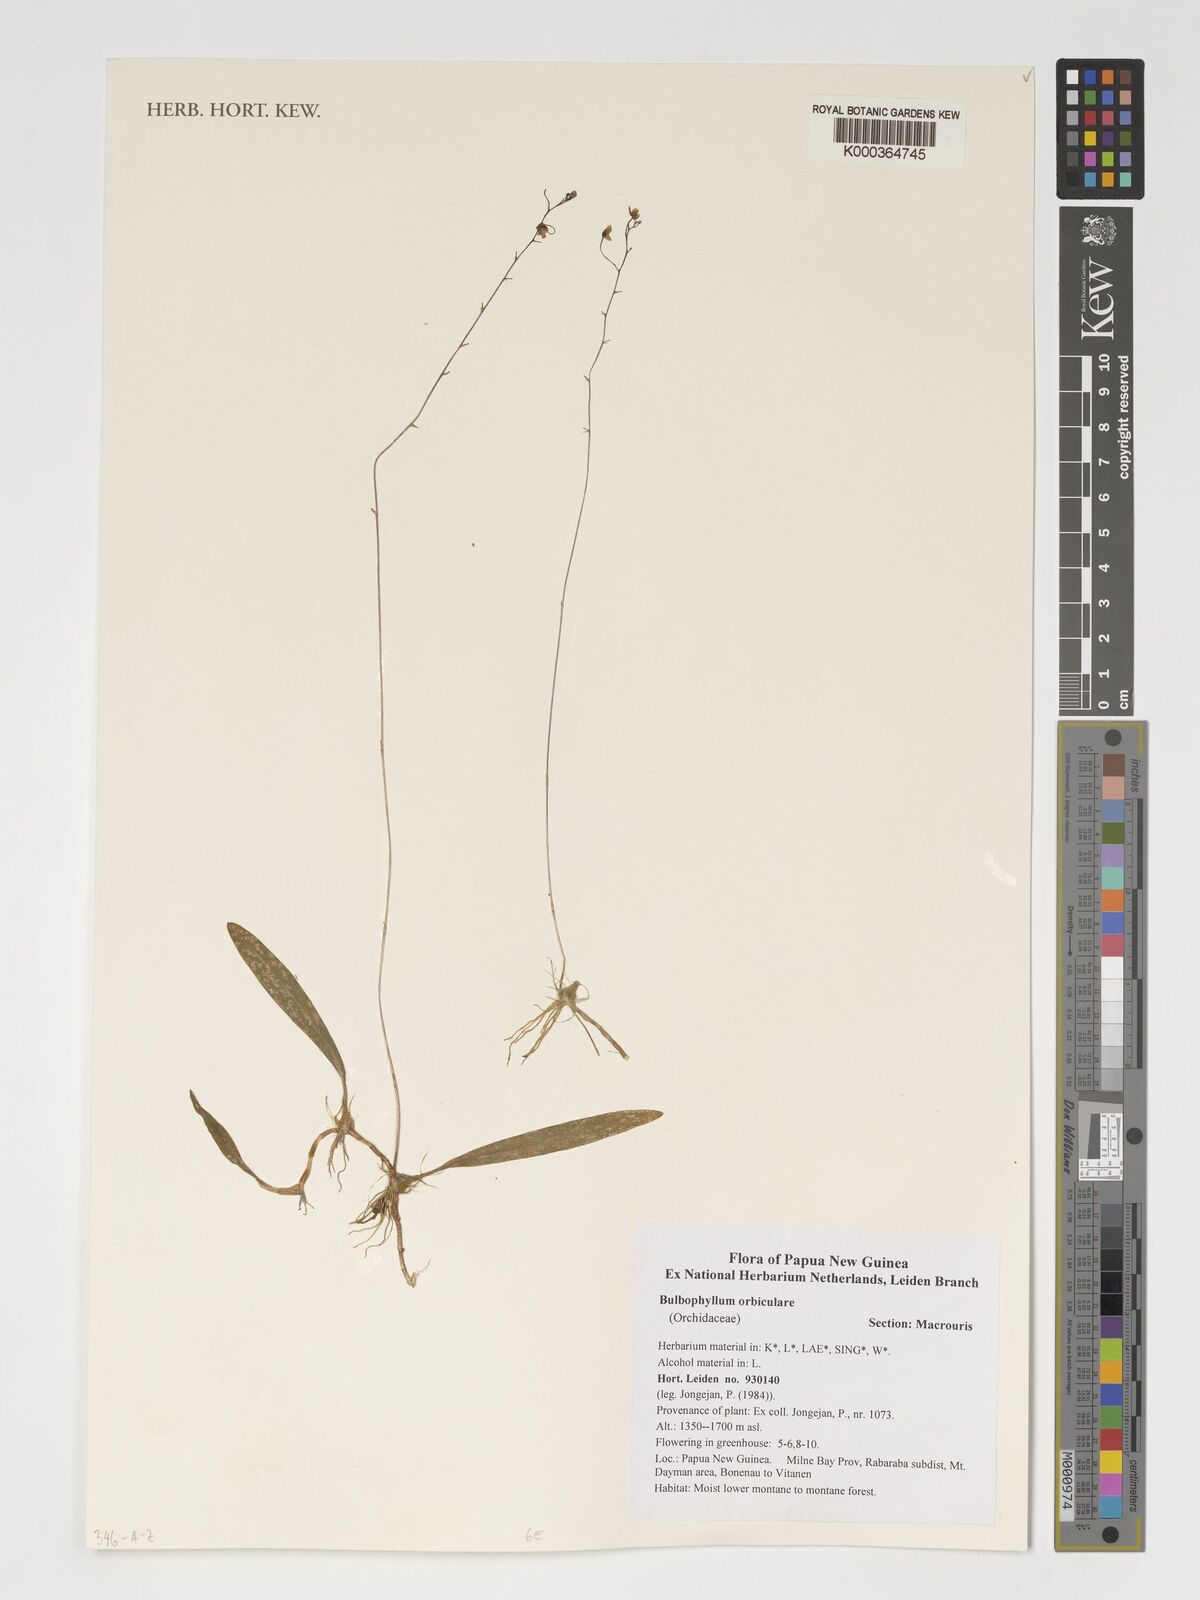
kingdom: Plantae
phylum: Tracheophyta
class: Liliopsida
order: Asparagales
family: Orchidaceae
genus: Bulbophyllum
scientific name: Bulbophyllum orbiculare
